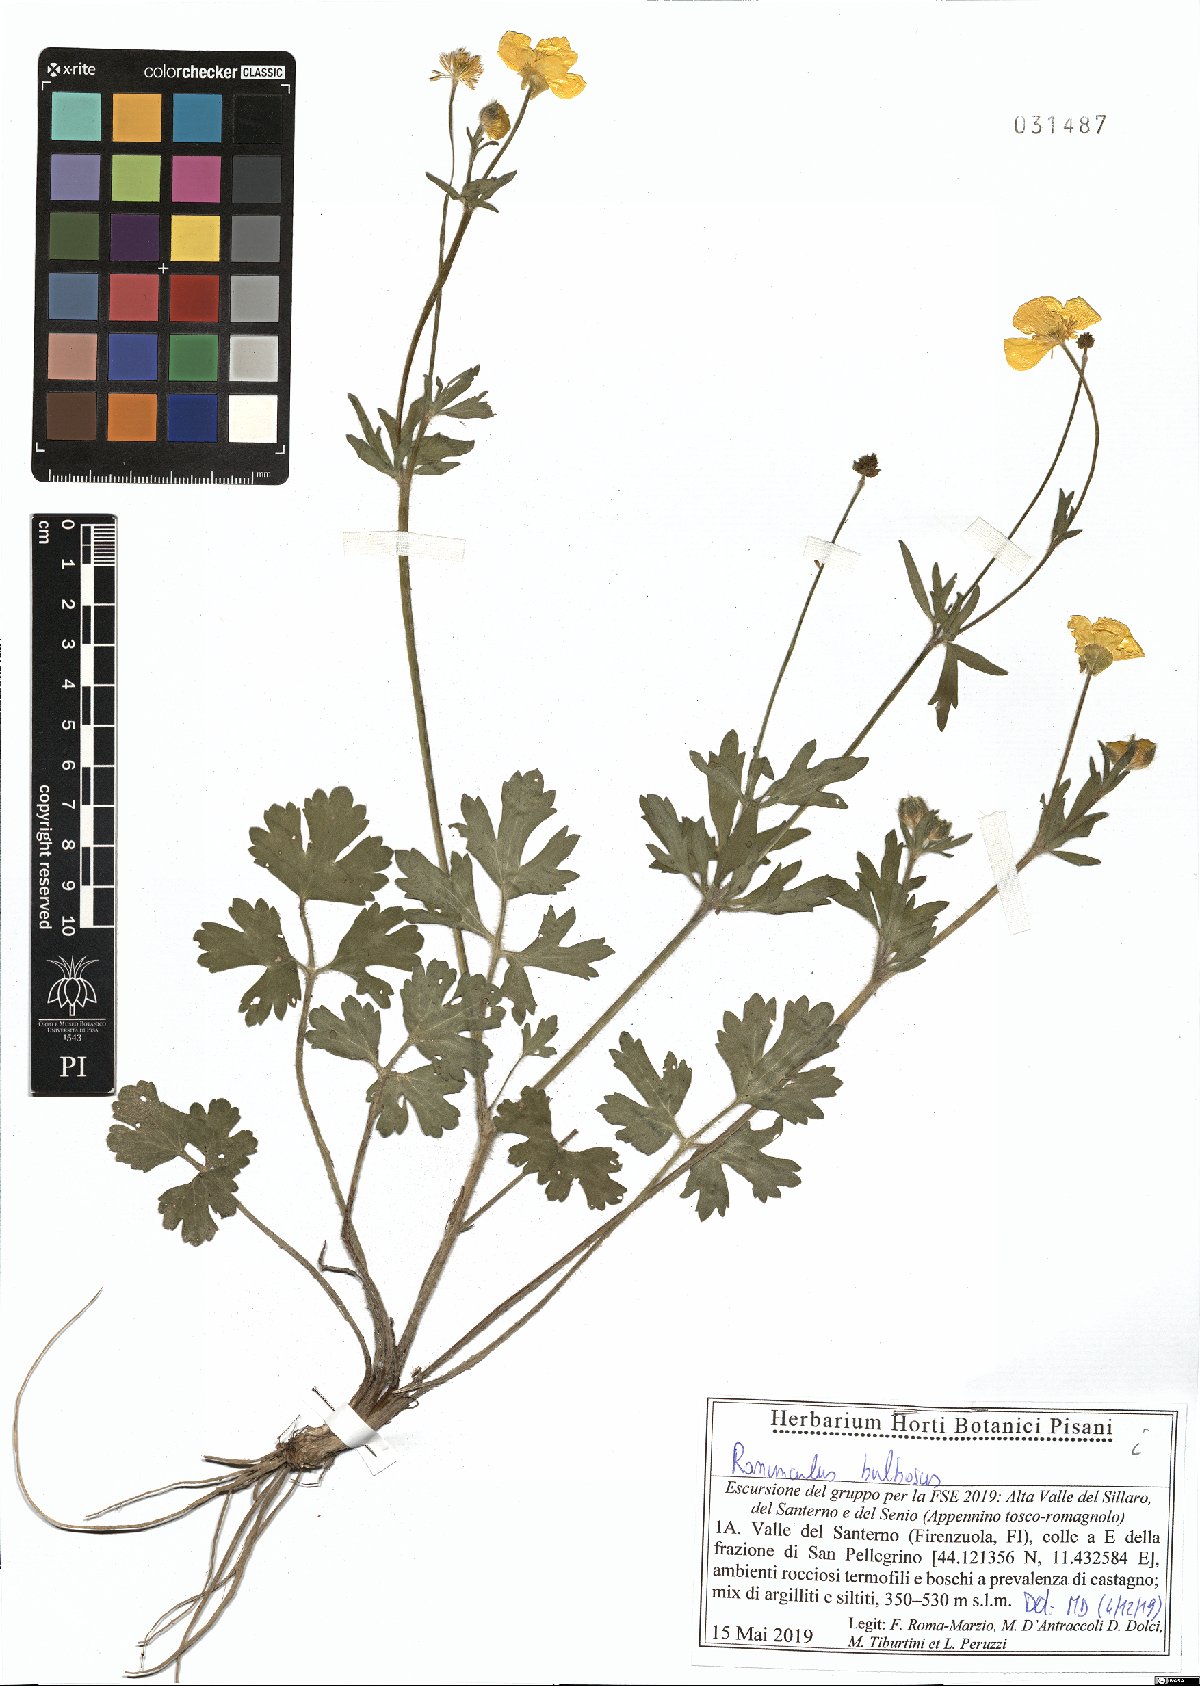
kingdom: Plantae
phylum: Tracheophyta
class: Magnoliopsida
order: Ranunculales
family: Ranunculaceae
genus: Ranunculus
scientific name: Ranunculus bulbosus
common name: Bulbous buttercup
